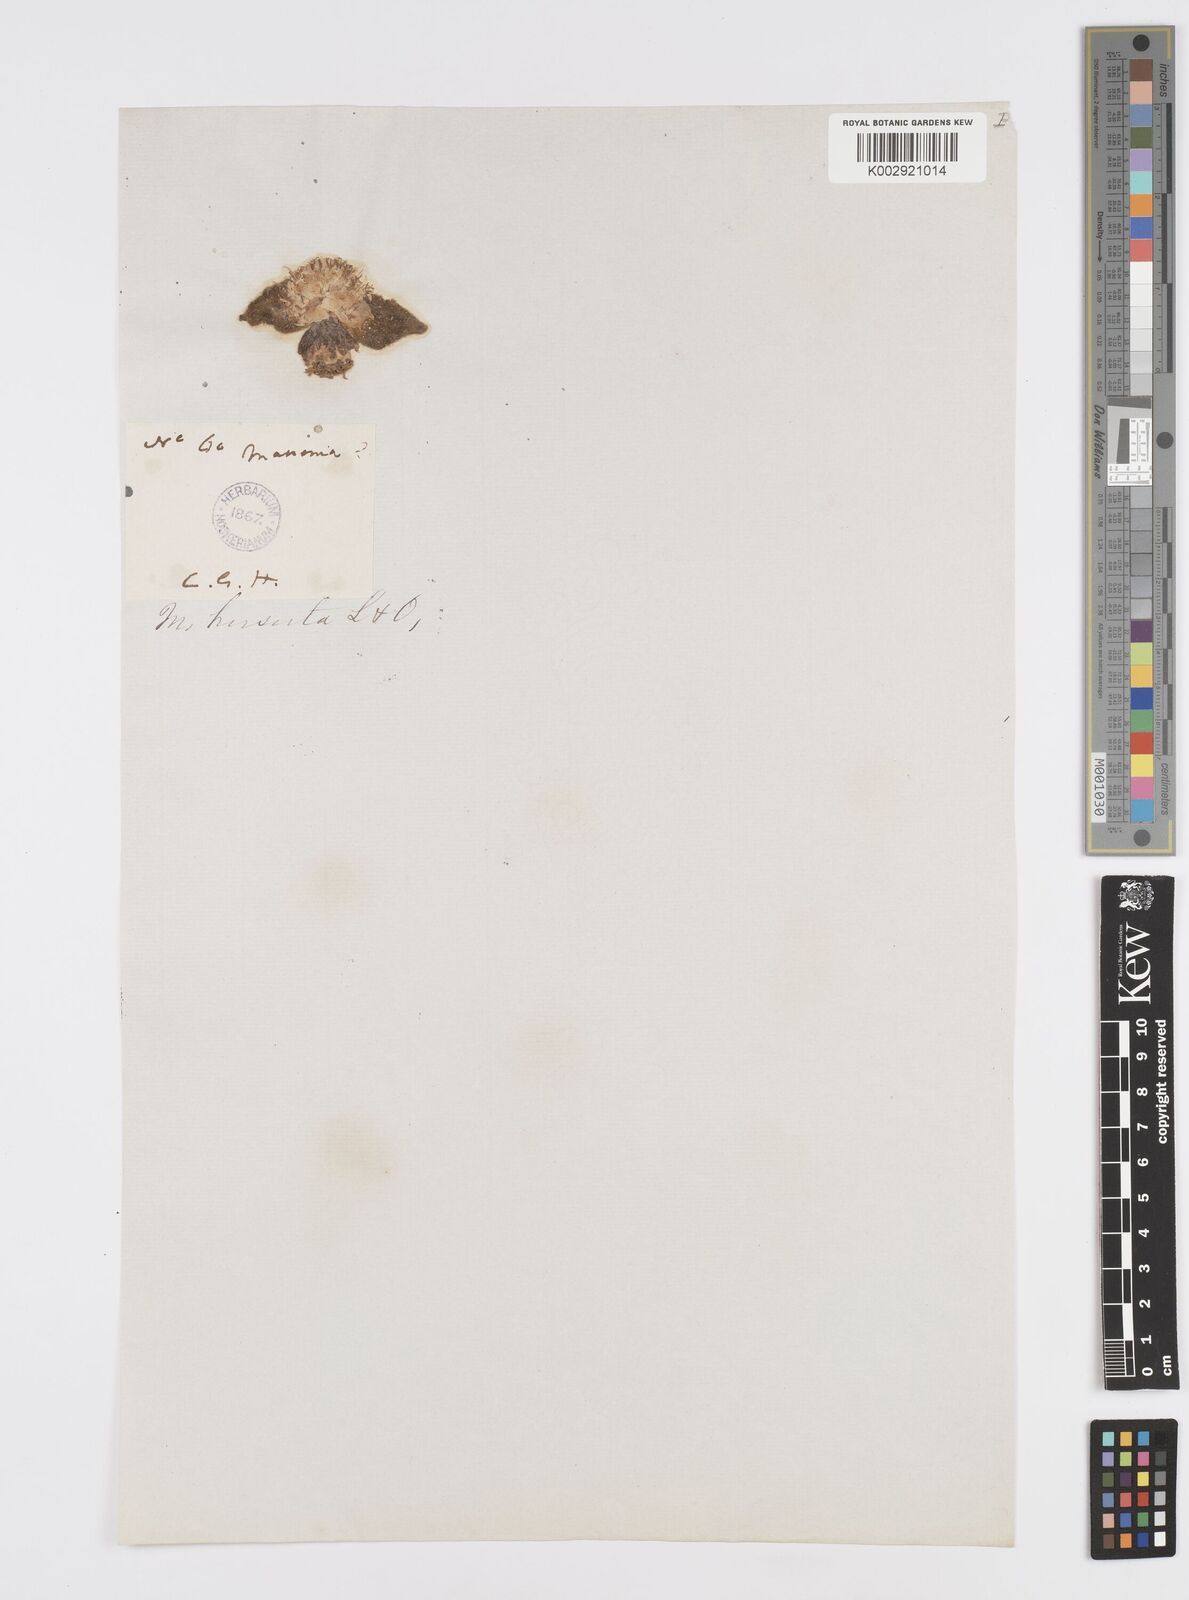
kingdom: Plantae
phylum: Tracheophyta
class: Liliopsida
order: Asparagales
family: Asparagaceae
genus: Massonia
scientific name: Massonia
